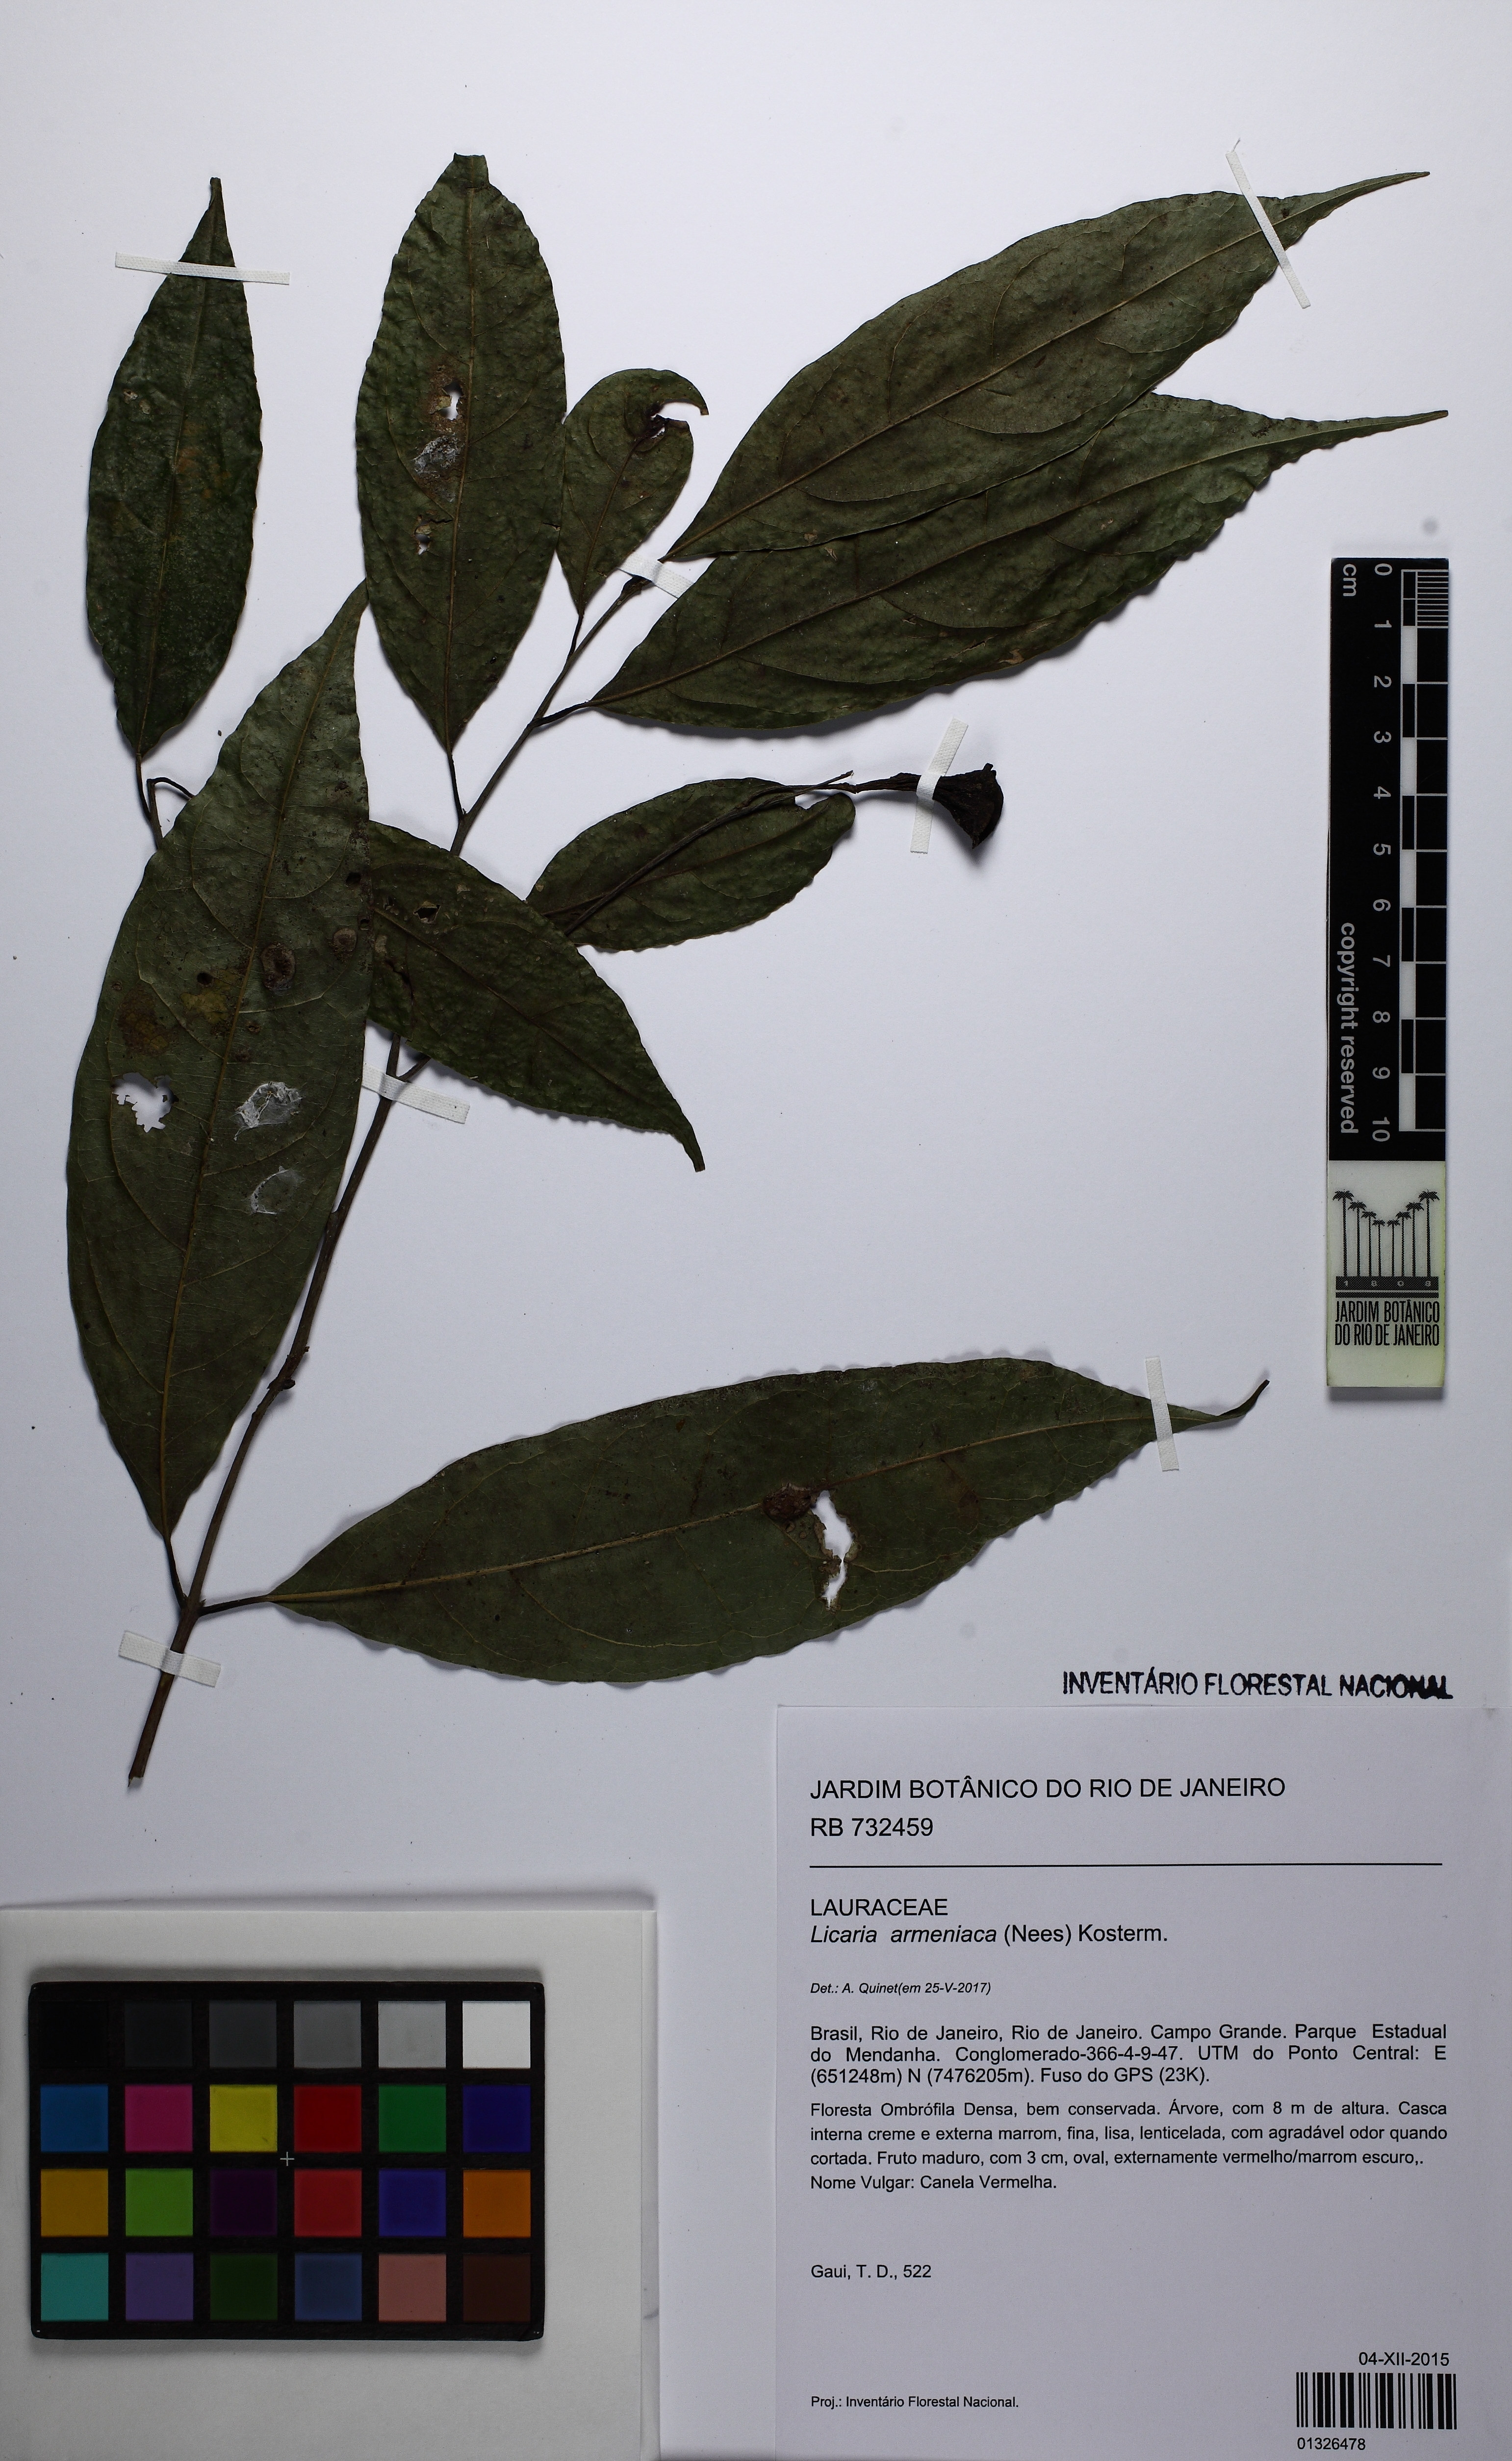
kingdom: Plantae
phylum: Tracheophyta
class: Magnoliopsida
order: Laurales
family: Lauraceae
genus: Licaria
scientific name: Licaria armeniaca
